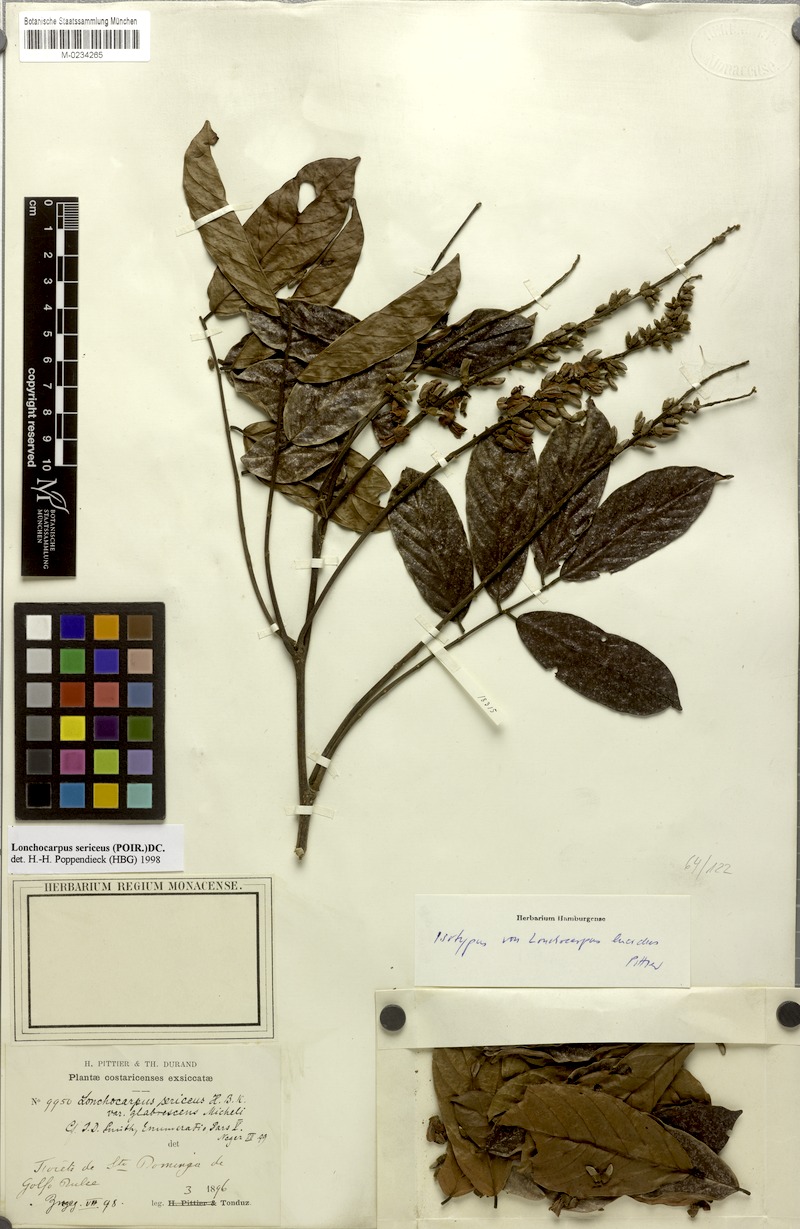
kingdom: Plantae
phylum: Tracheophyta
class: Magnoliopsida
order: Fabales
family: Fabaceae
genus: Lonchocarpus
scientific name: Lonchocarpus macrophyllus
